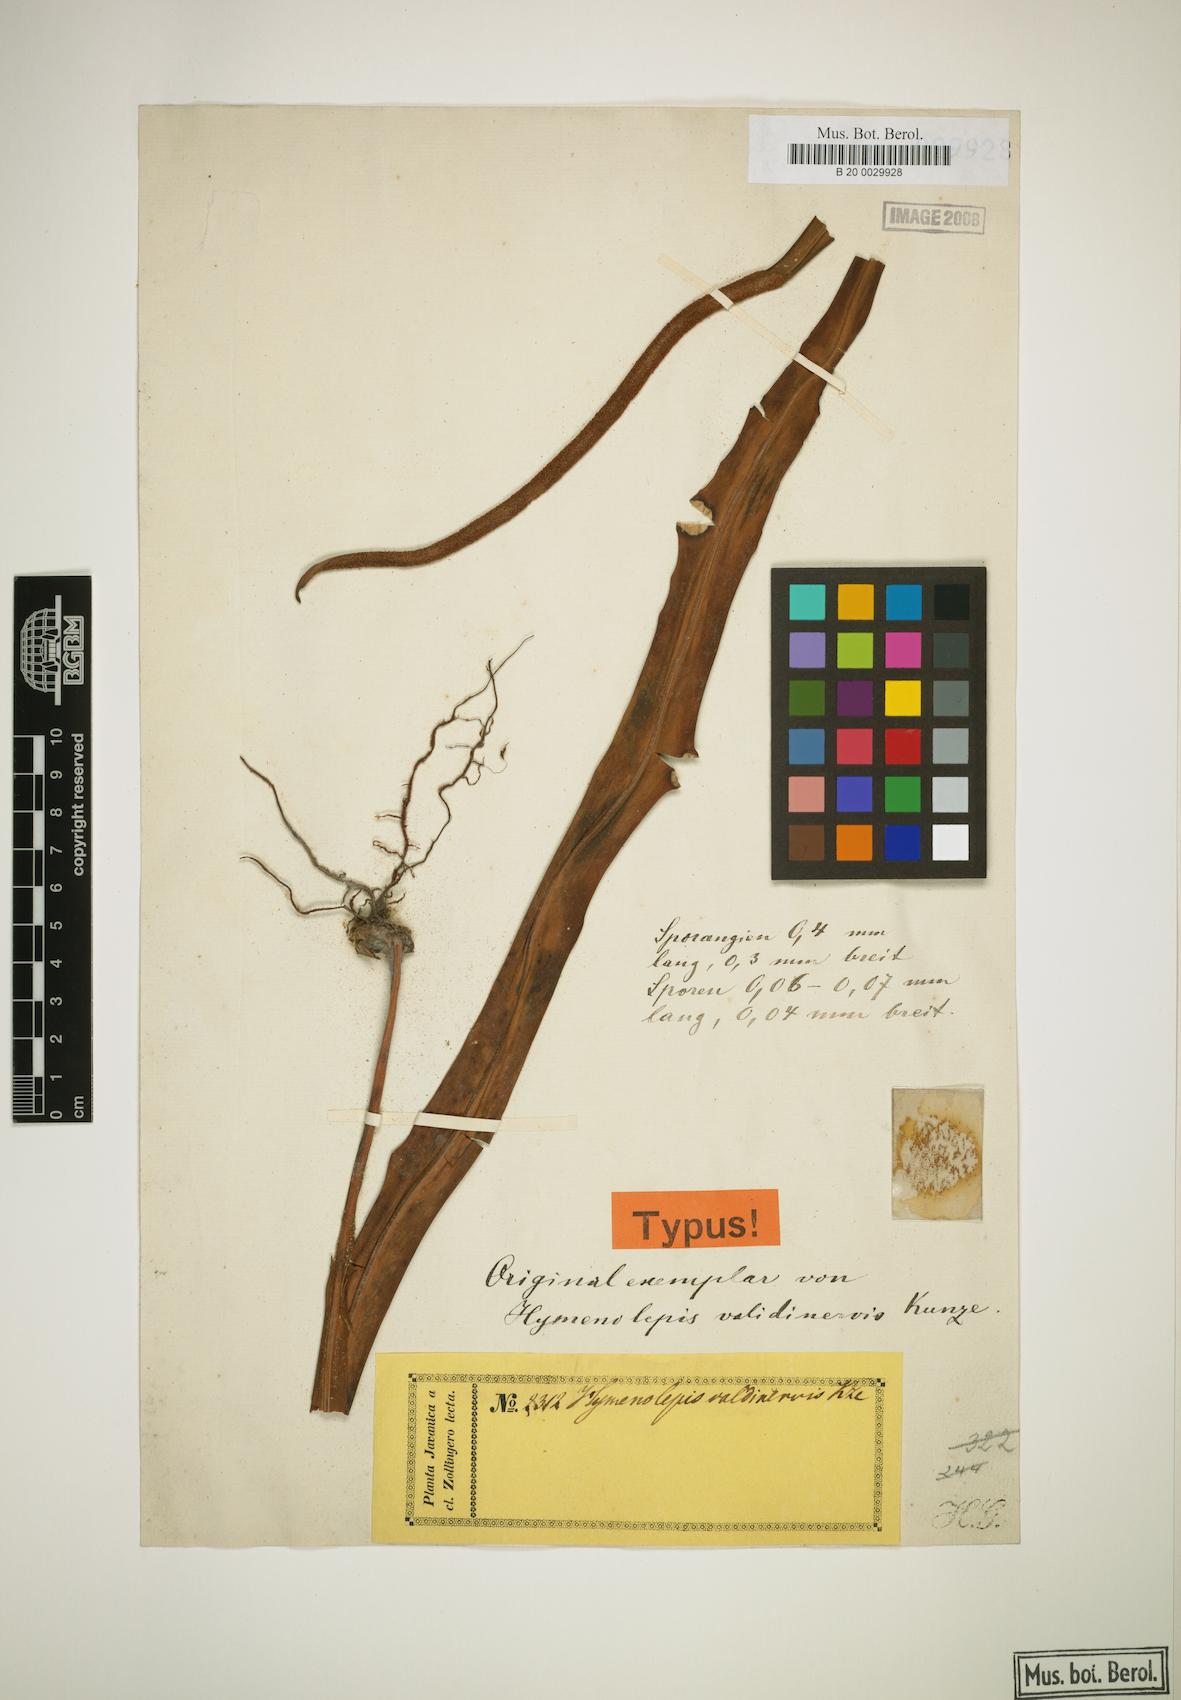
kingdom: Plantae
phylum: Tracheophyta
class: Polypodiopsida
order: Polypodiales
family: Polypodiaceae
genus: Lepisorus
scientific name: Lepisorus validinervis
